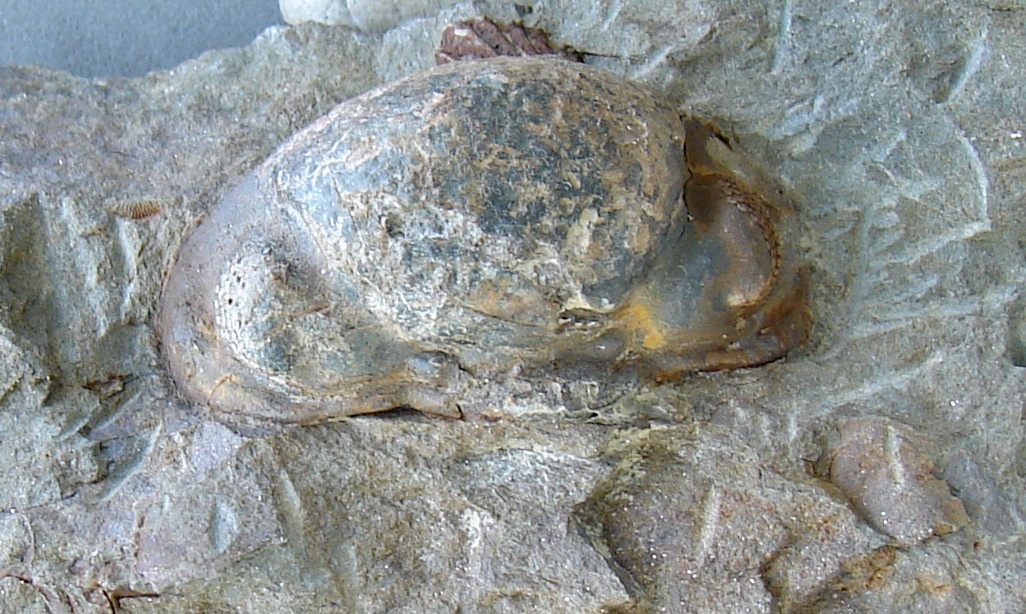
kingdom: Animalia
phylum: Arthropoda
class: Trilobita
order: Phacopida
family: Phacopidae
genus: Phacops
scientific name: Phacops michelsi
